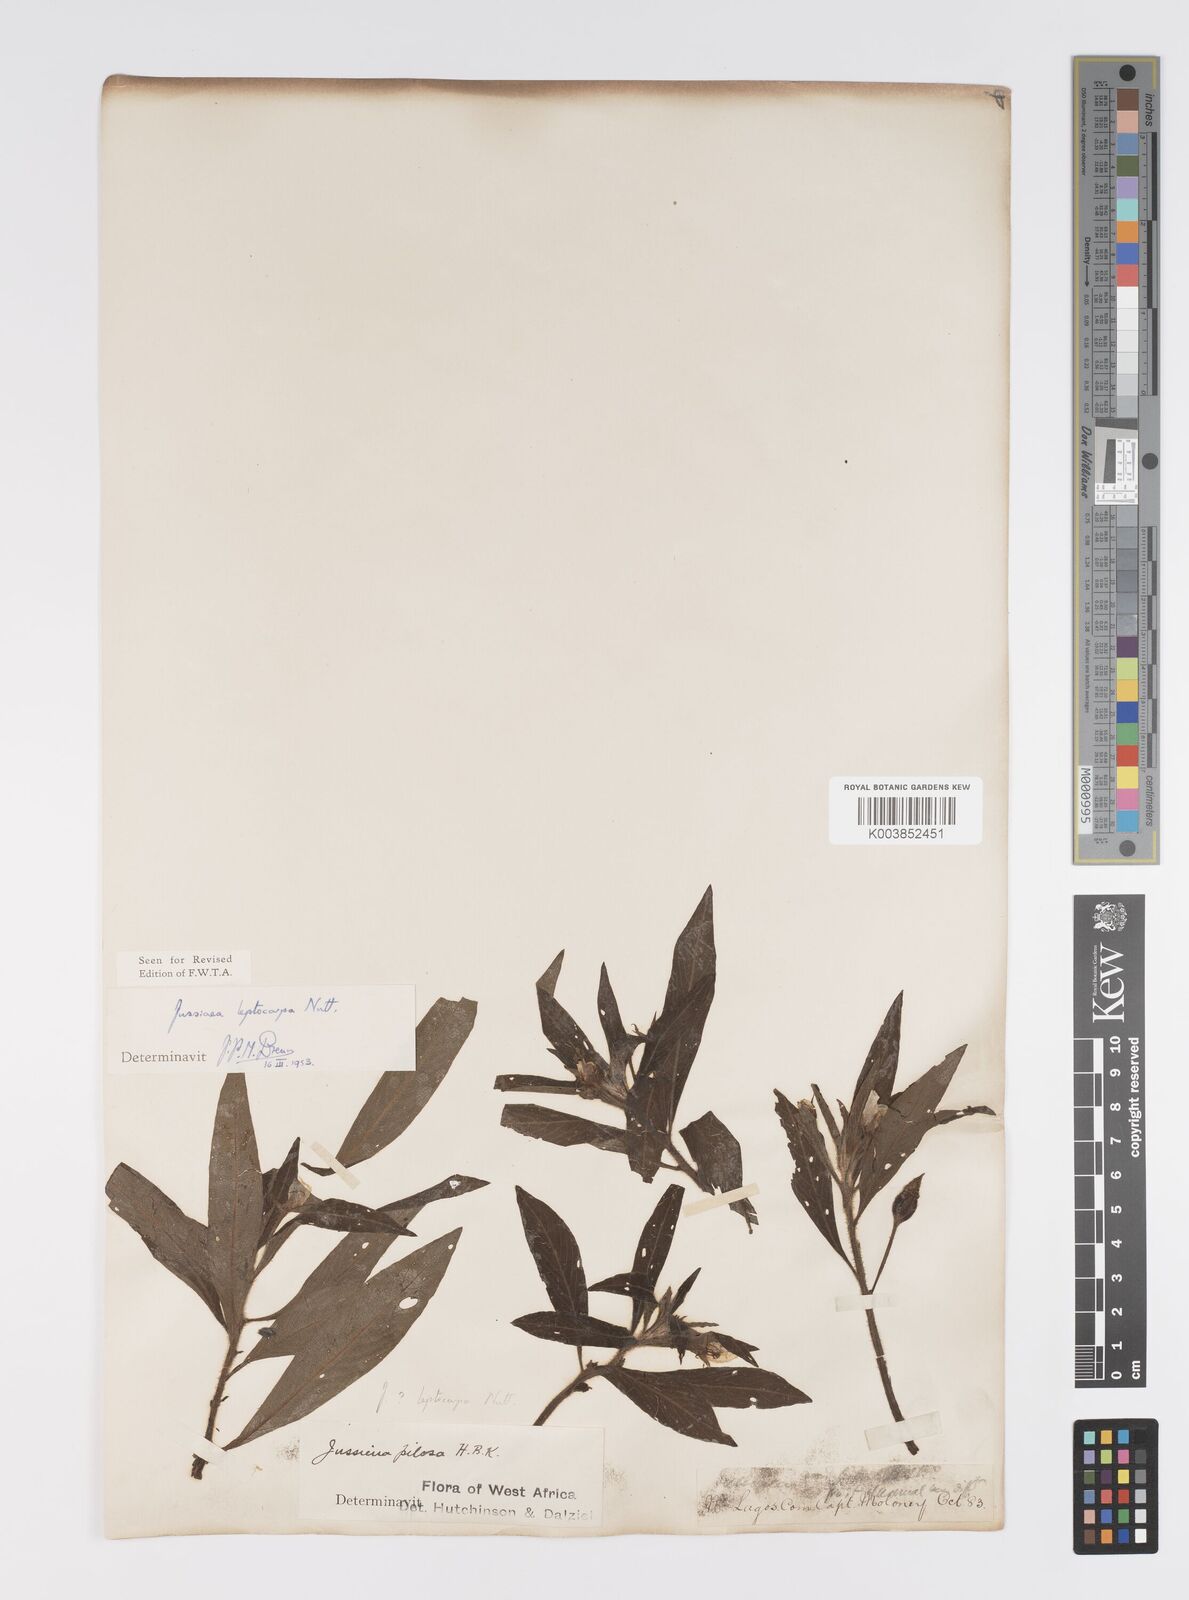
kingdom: Plantae
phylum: Tracheophyta
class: Magnoliopsida
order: Myrtales
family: Onagraceae
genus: Ludwigia
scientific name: Ludwigia leptocarpa
